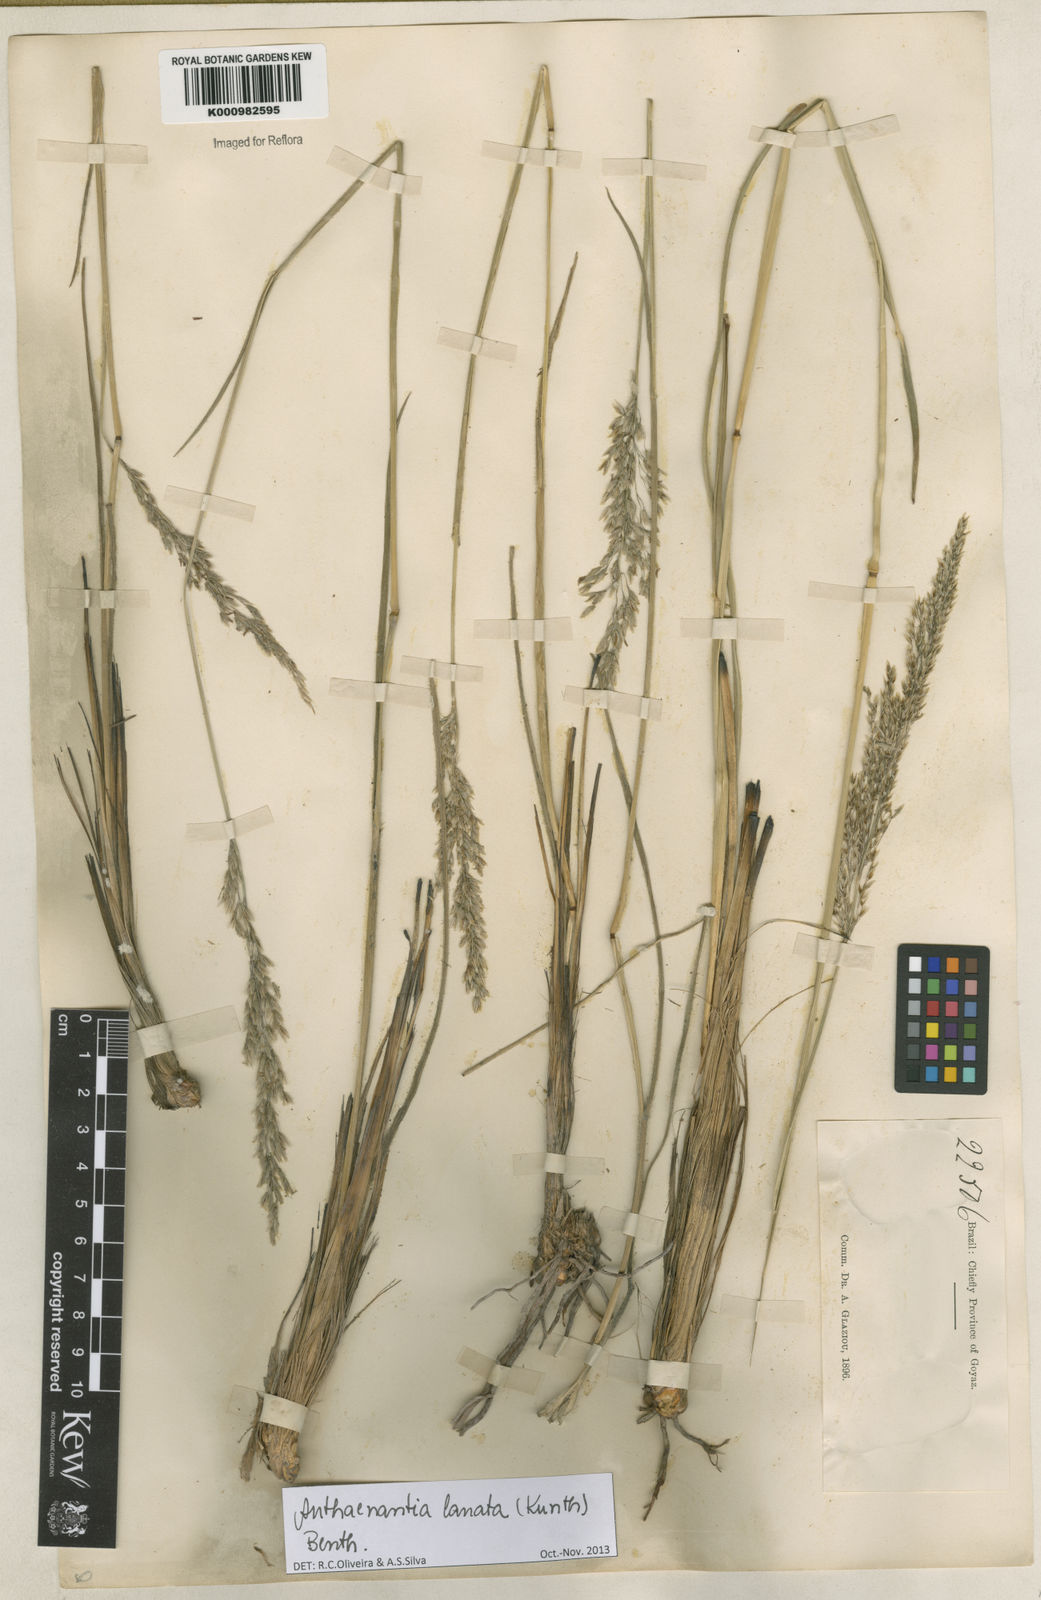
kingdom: Plantae
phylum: Tracheophyta
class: Liliopsida
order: Poales
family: Poaceae
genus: Anthenantia
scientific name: Anthenantia lanata
